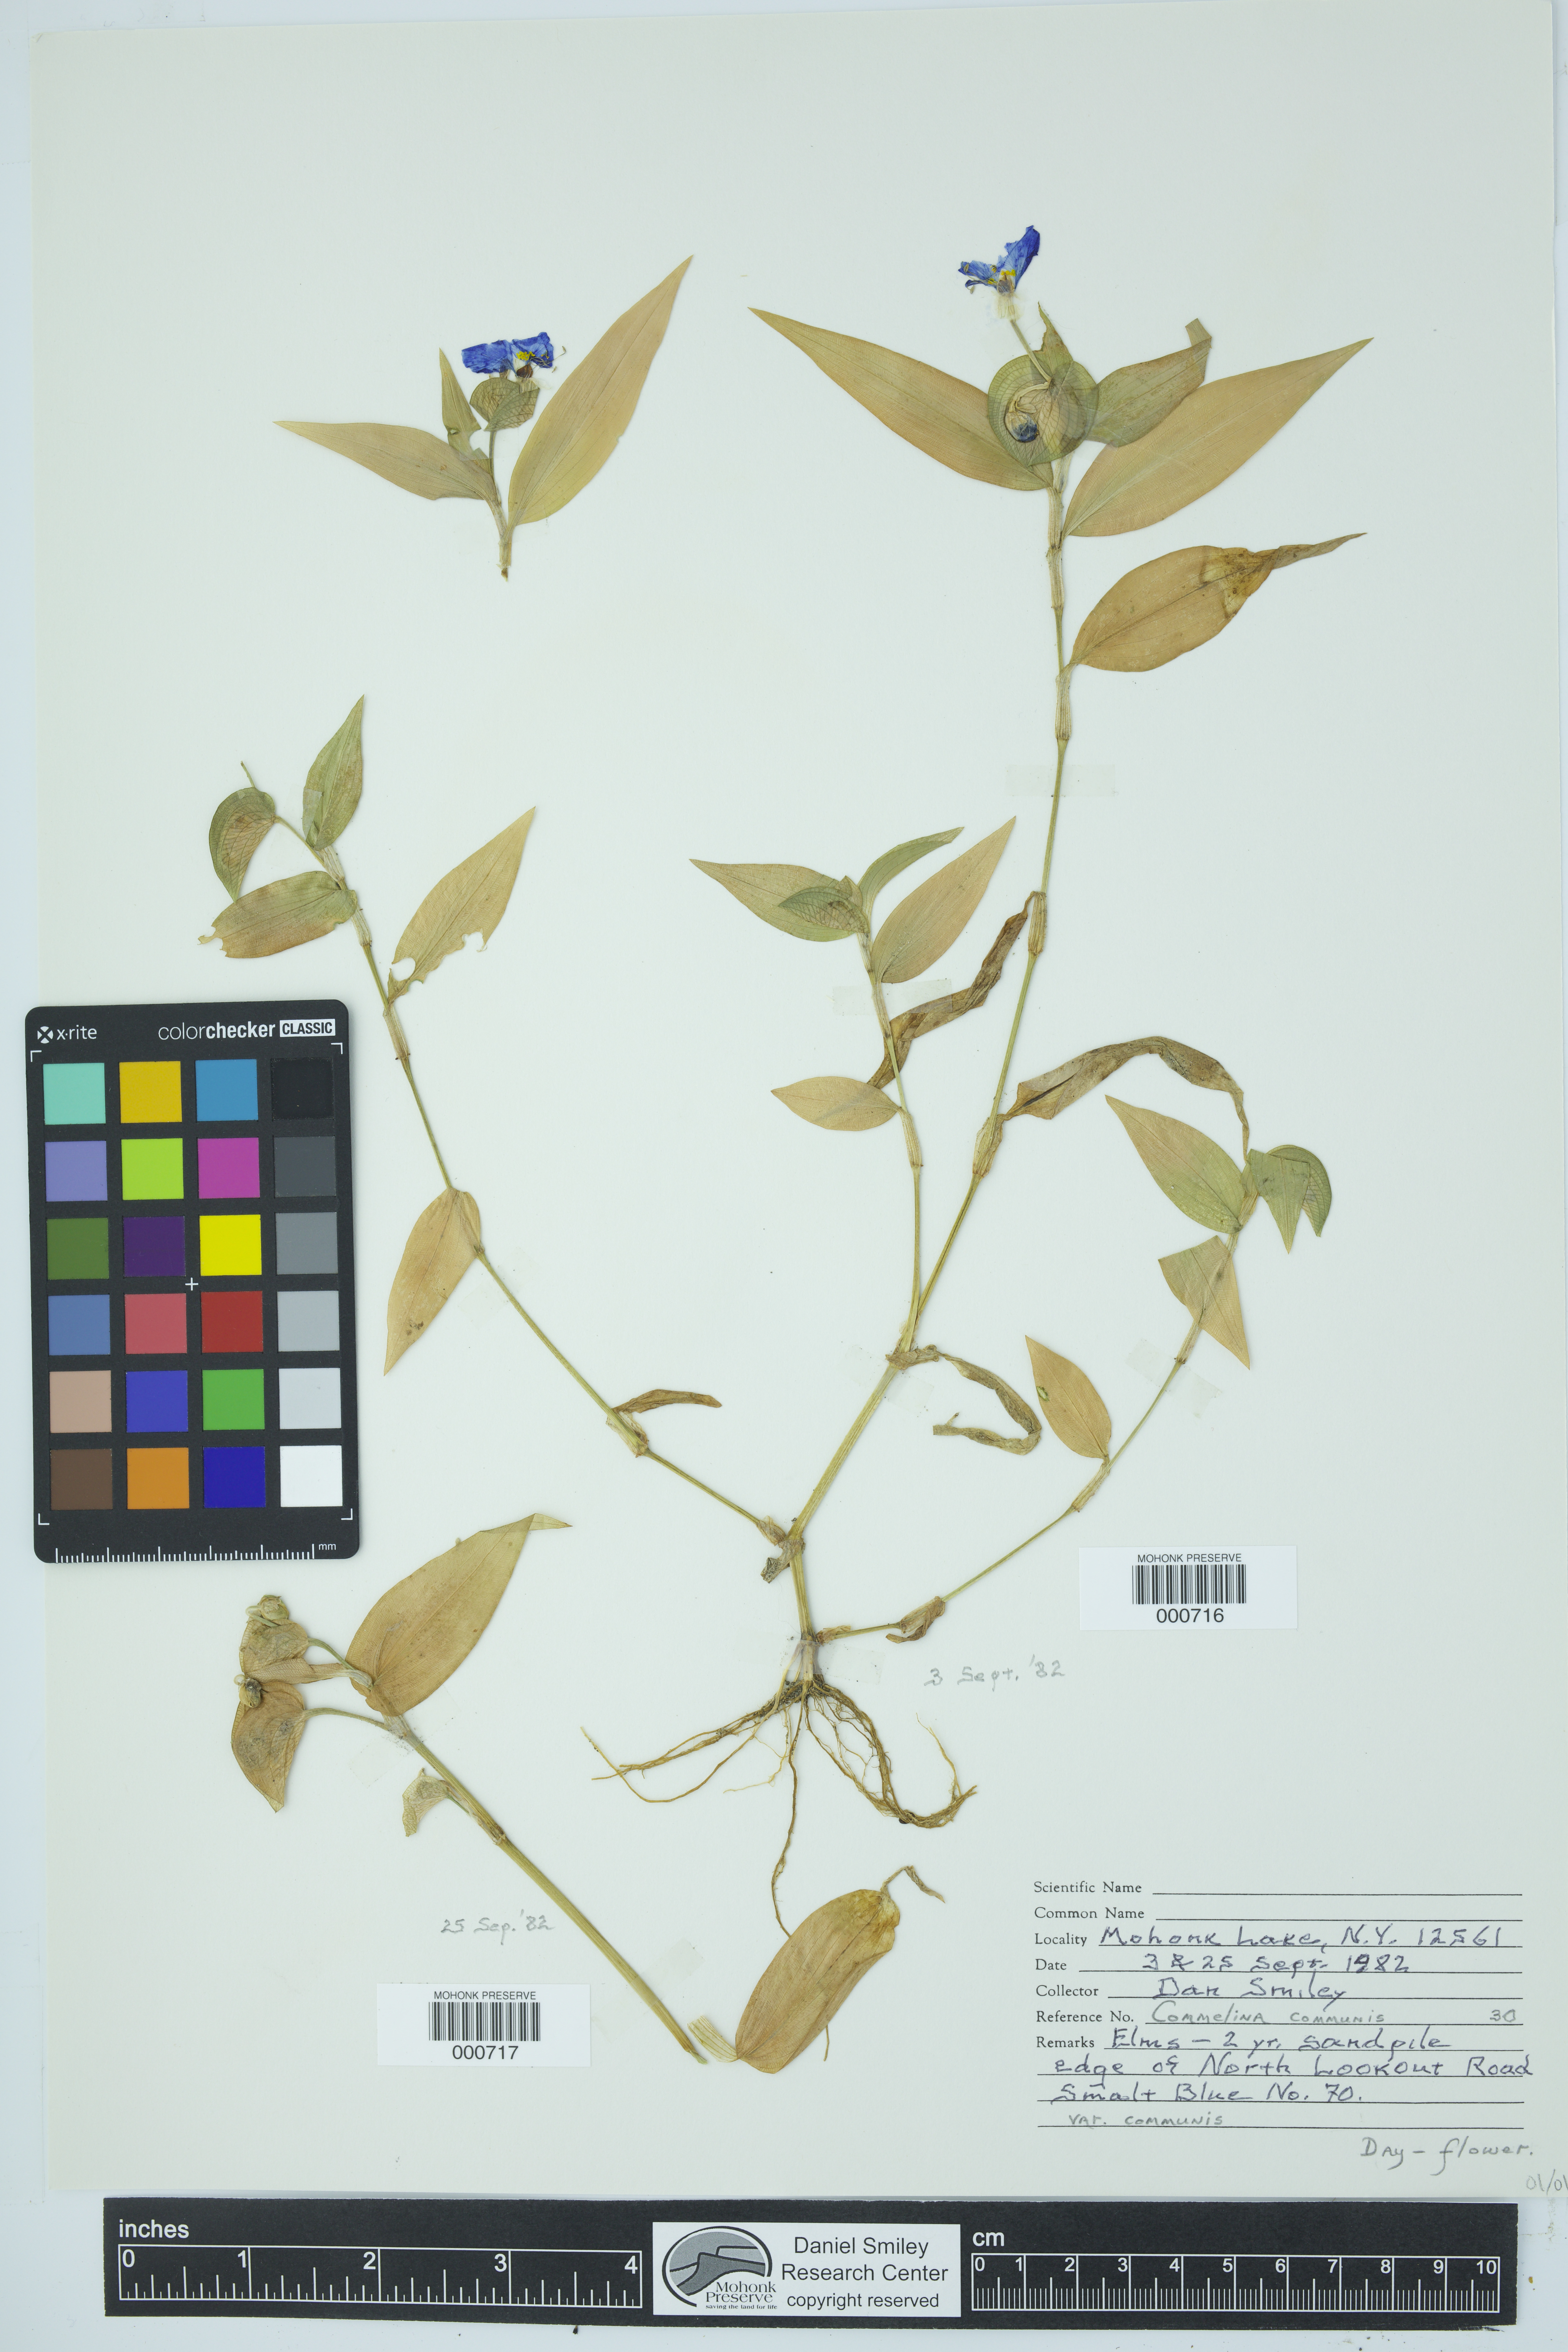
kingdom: Plantae
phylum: Tracheophyta
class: Magnoliopsida
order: Dipsacales
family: Viburnaceae
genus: Viburnum
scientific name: Viburnum acerifolium
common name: Dockmackie
